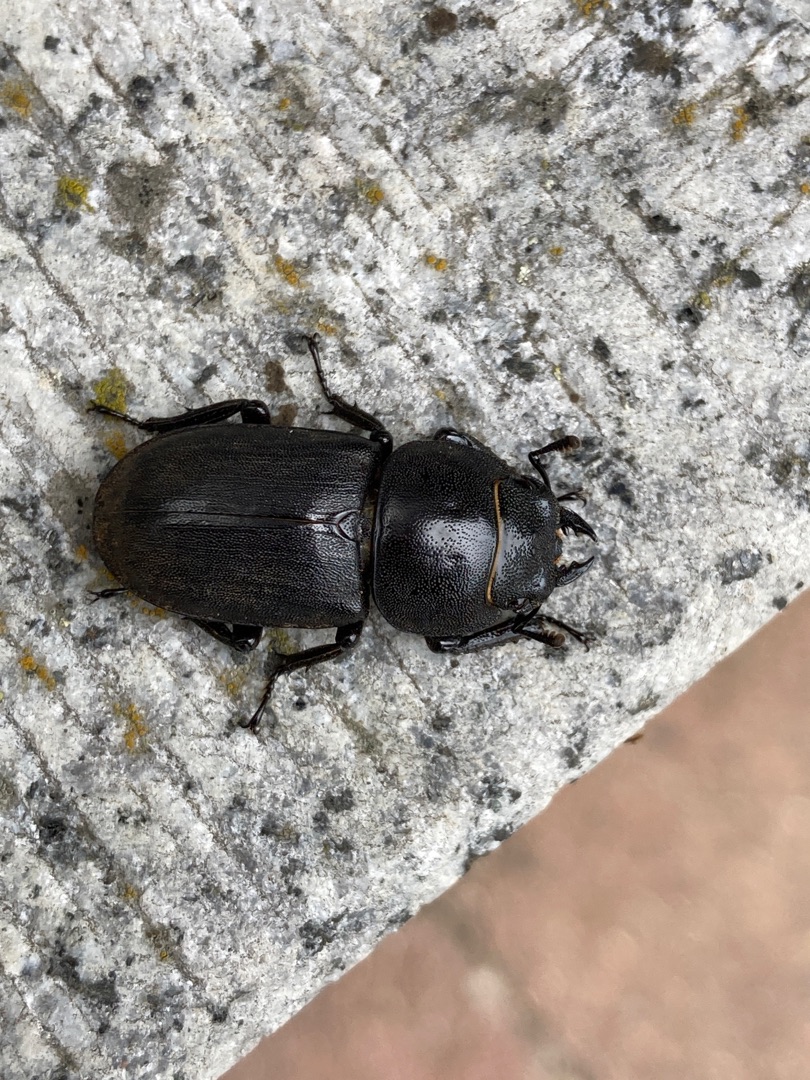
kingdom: Animalia
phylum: Arthropoda
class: Insecta
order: Coleoptera
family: Lucanidae
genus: Dorcus
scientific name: Dorcus parallelipipedus
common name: Bøghjort
